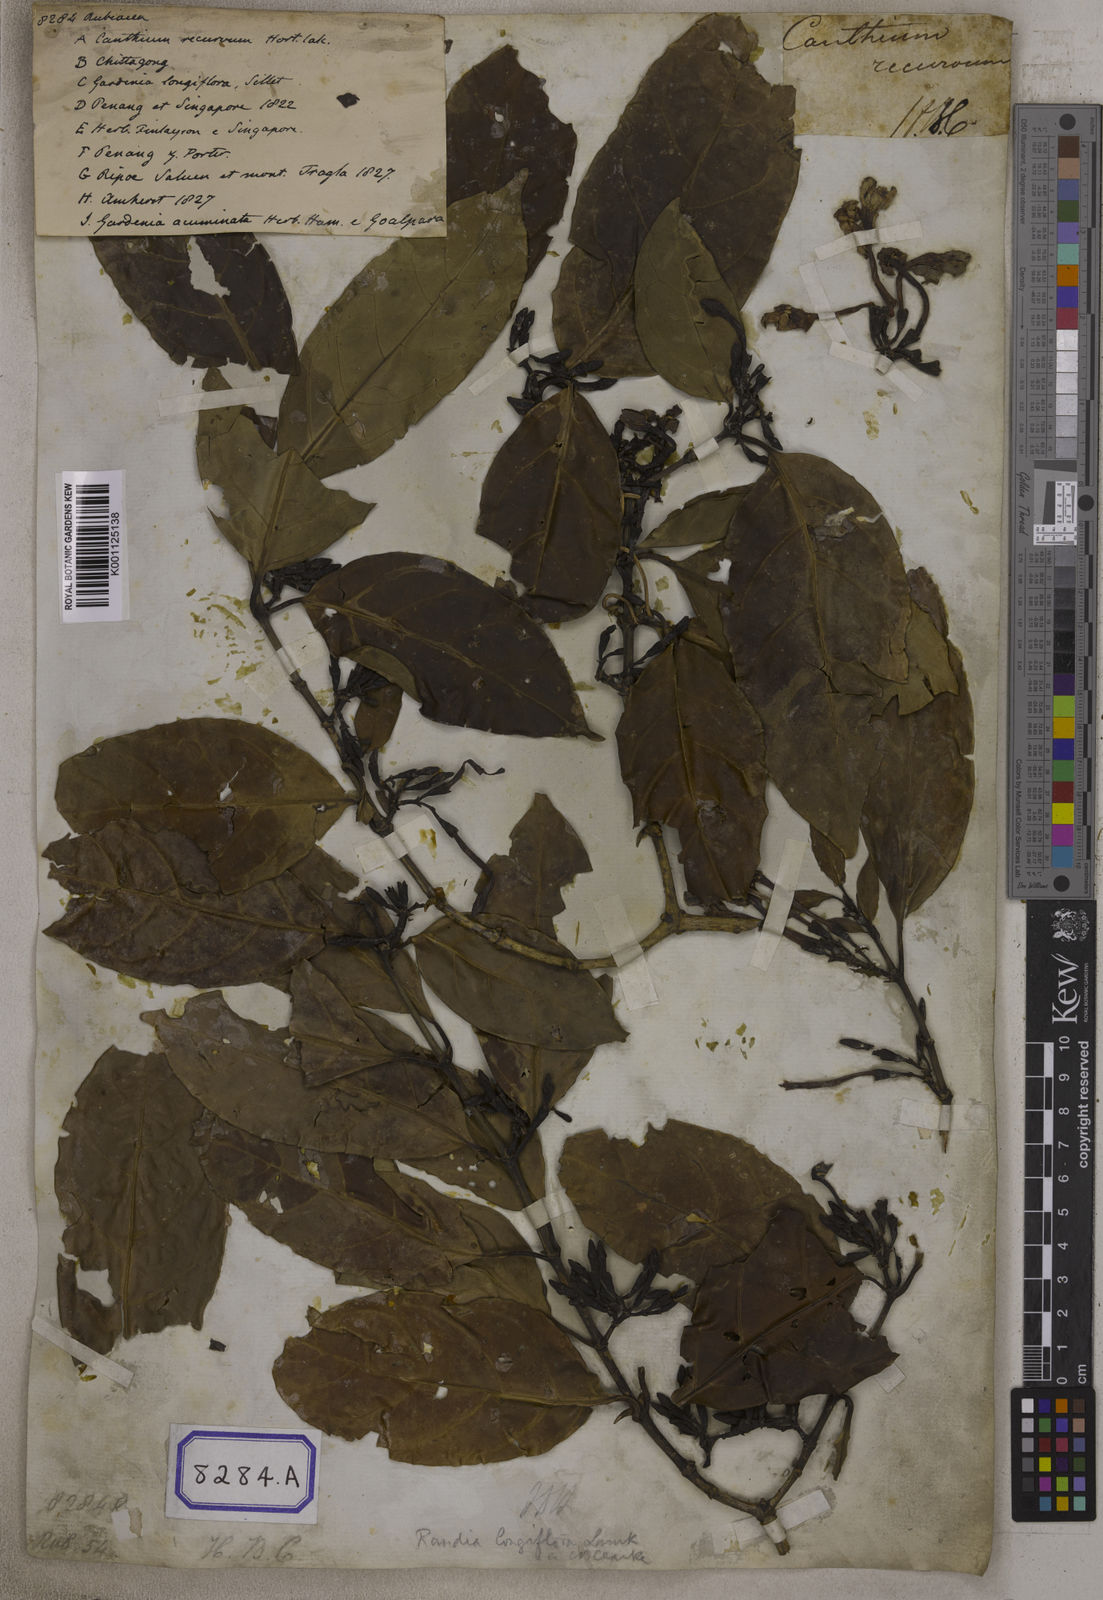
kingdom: Plantae
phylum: Tracheophyta
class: Magnoliopsida
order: Gentianales
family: Rubiaceae
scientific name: Rubiaceae
